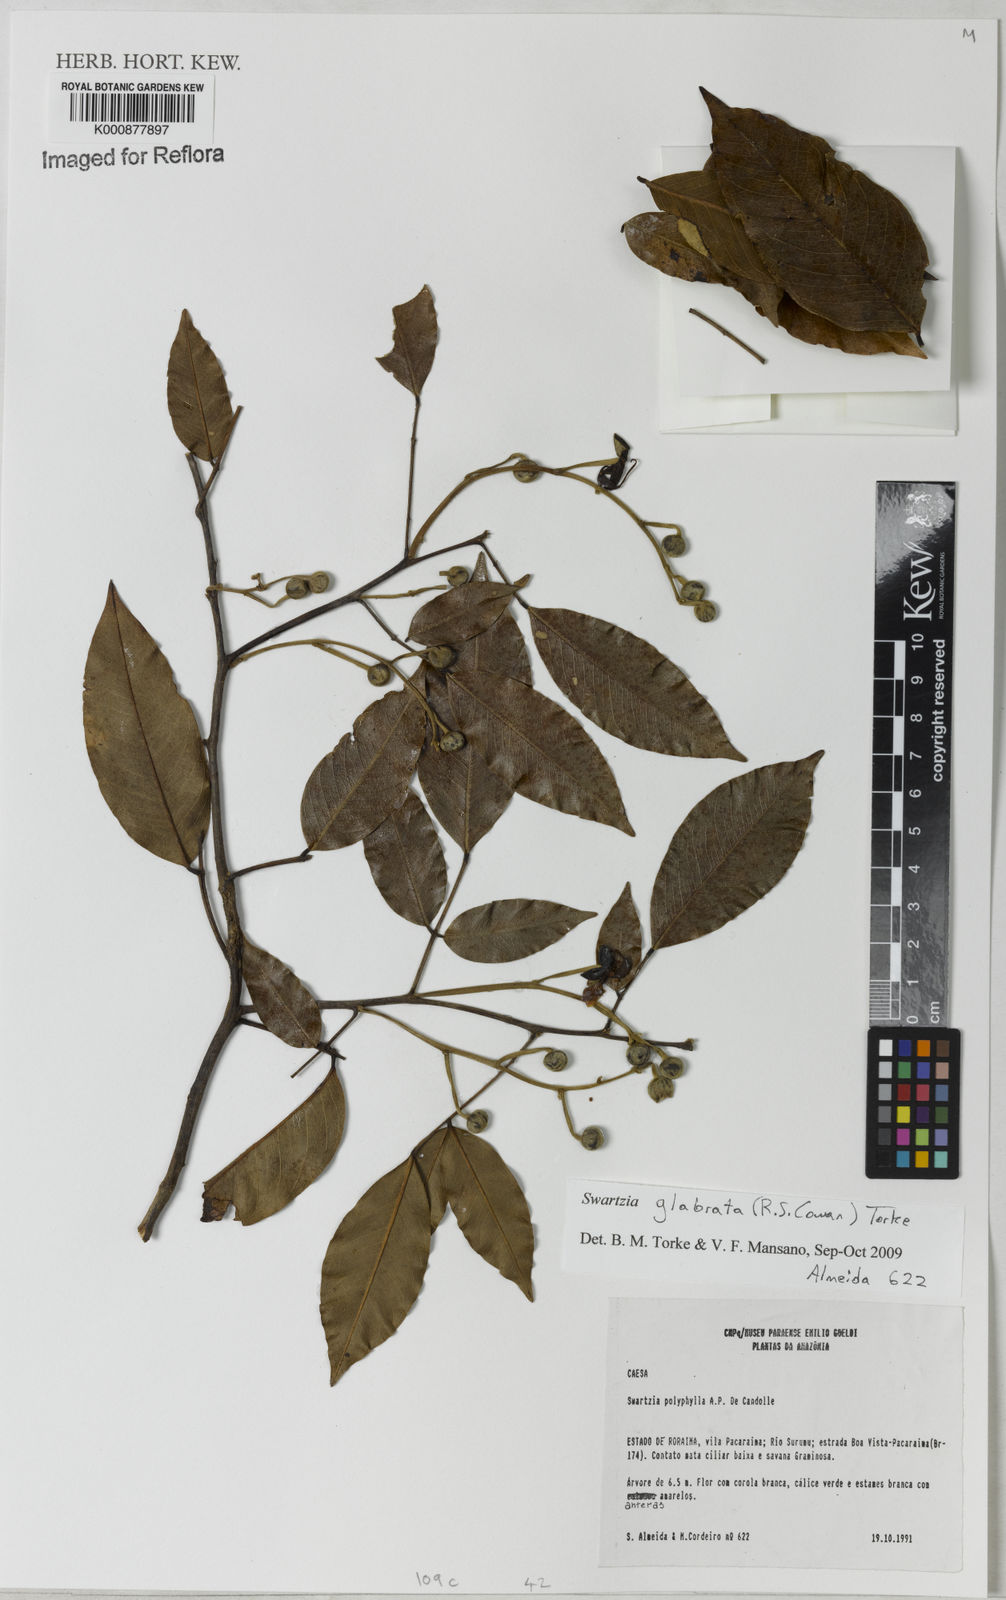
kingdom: Plantae
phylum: Tracheophyta
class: Magnoliopsida
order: Fabales
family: Fabaceae
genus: Swartzia
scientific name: Swartzia glabrata
